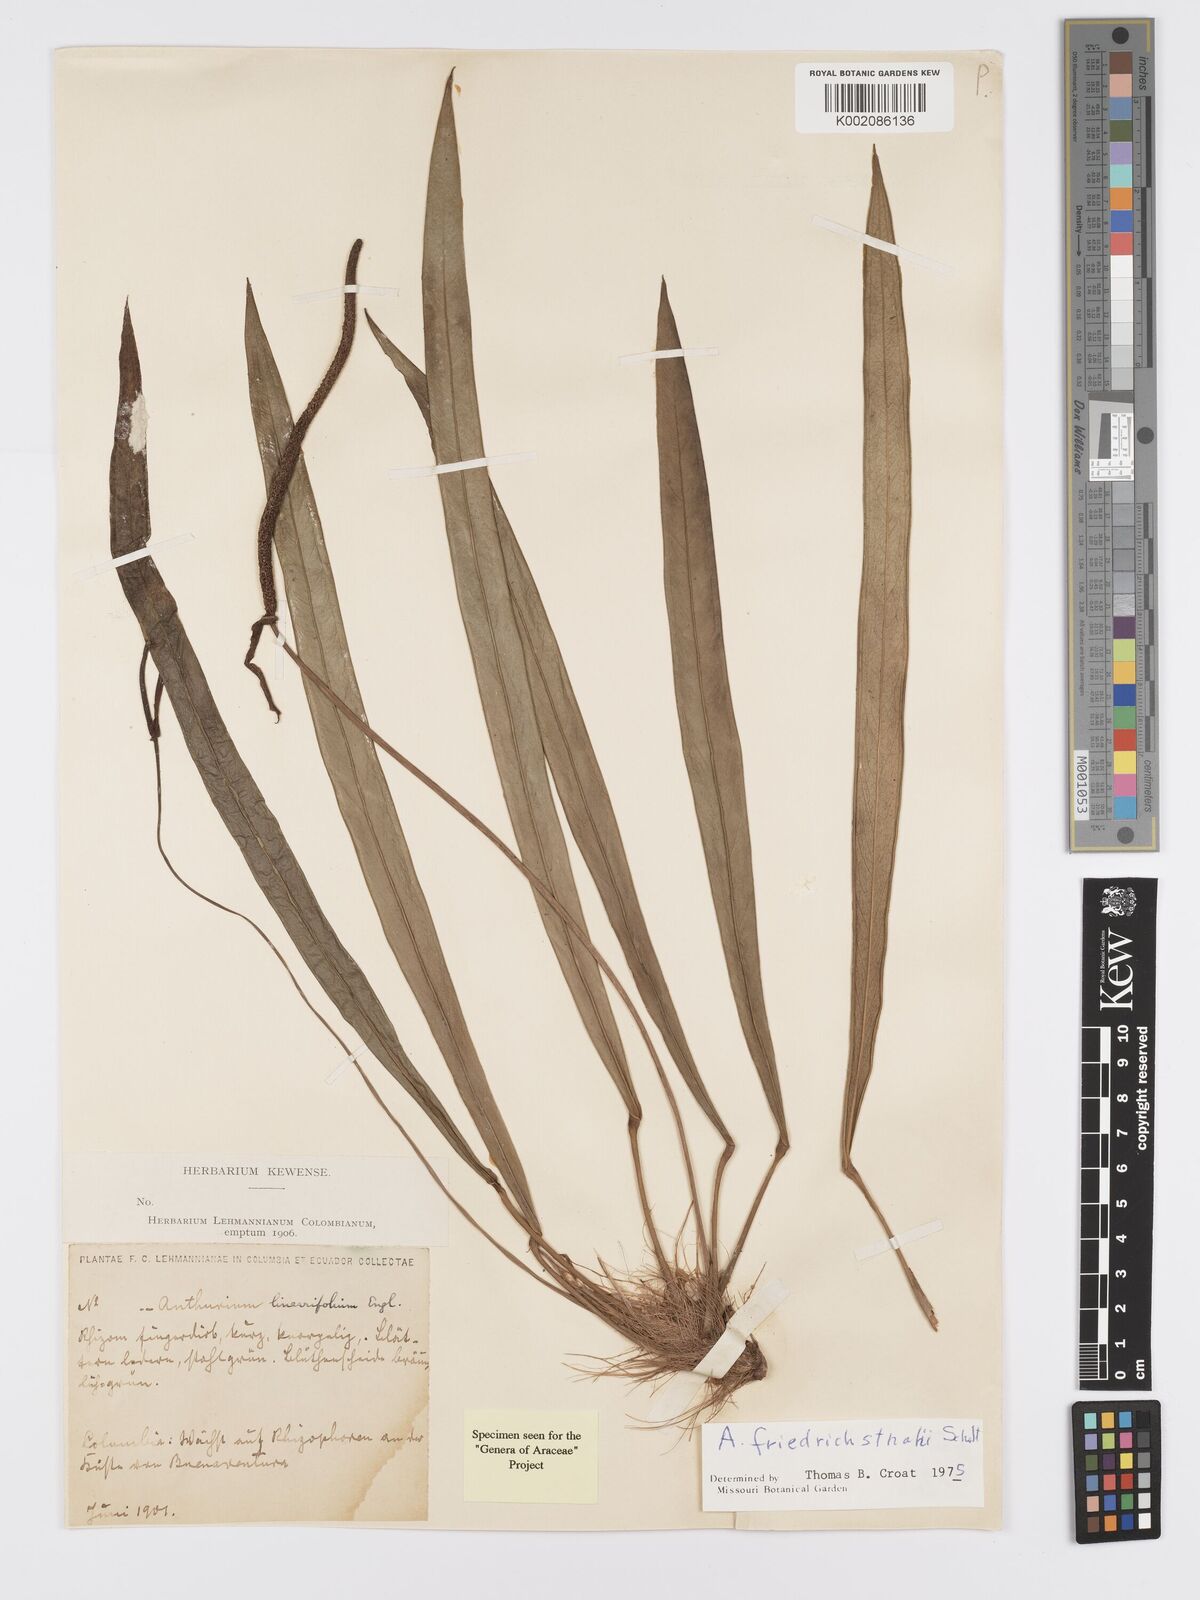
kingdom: Plantae
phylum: Tracheophyta
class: Liliopsida
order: Alismatales
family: Araceae
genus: Anthurium
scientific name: Anthurium friedrichsthalii
